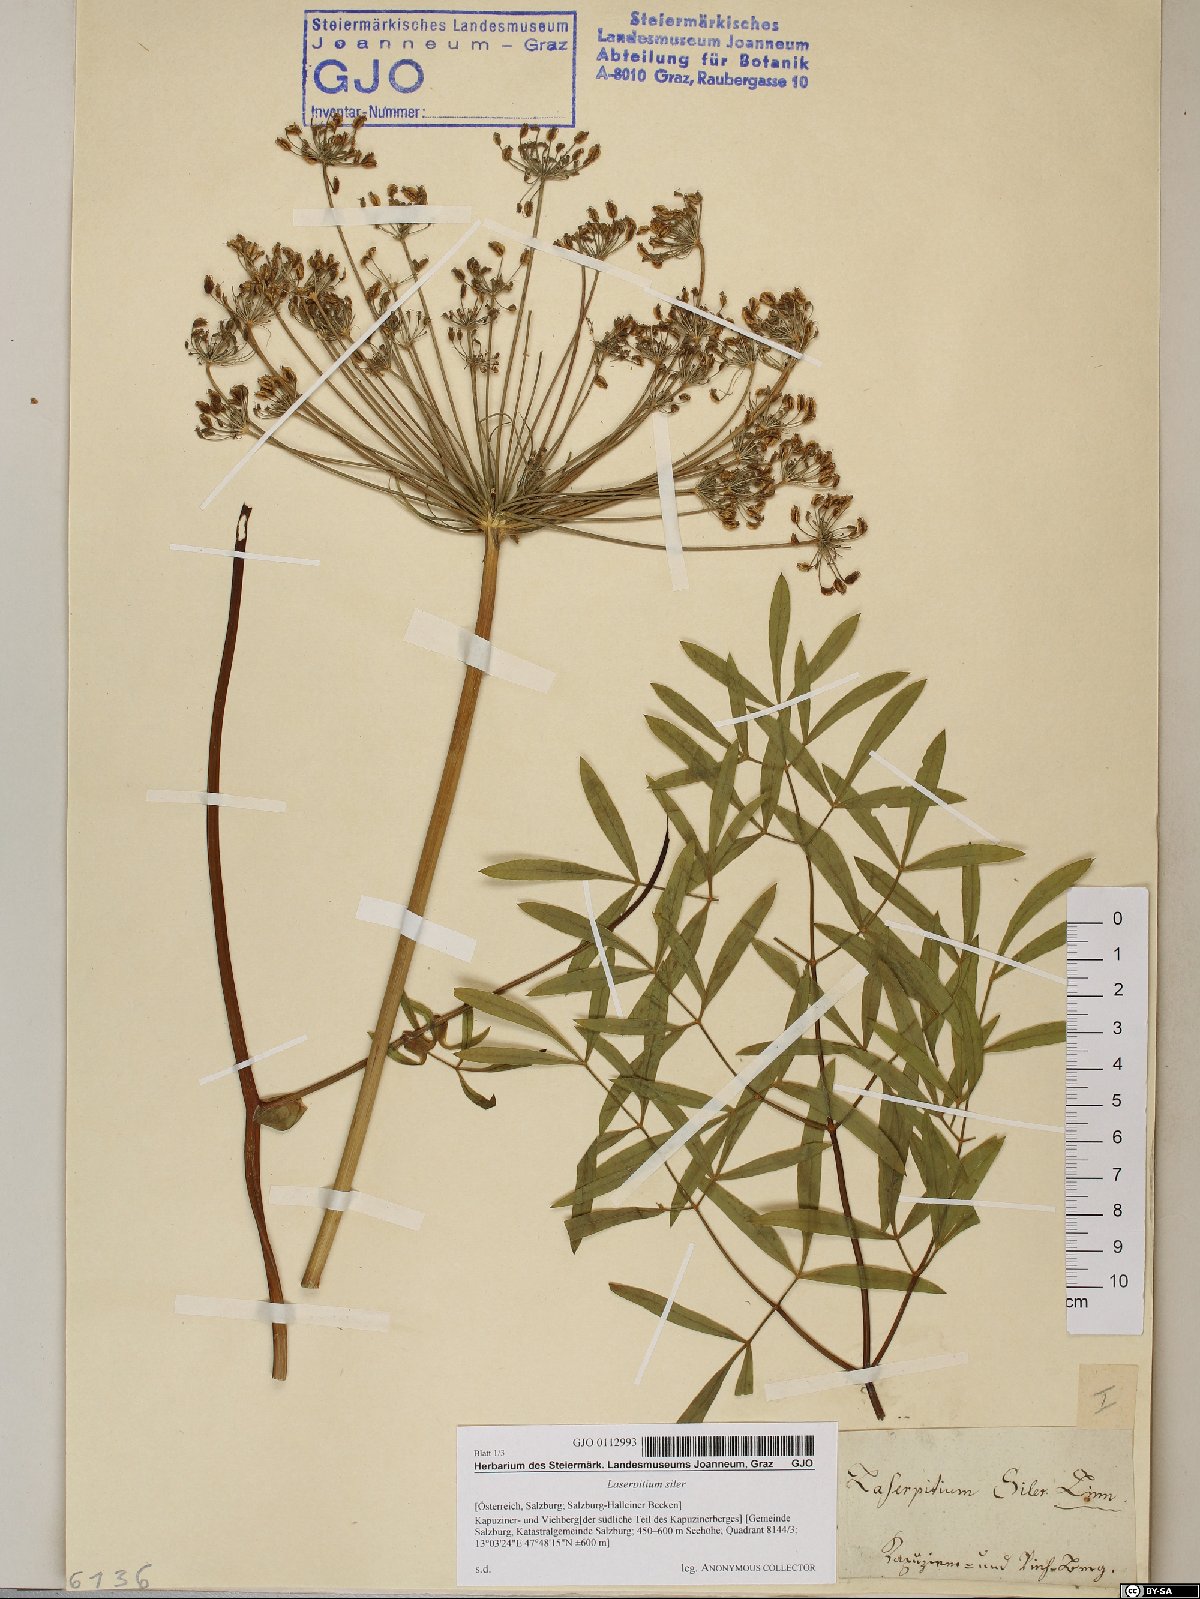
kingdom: Plantae
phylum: Tracheophyta
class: Magnoliopsida
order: Apiales
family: Apiaceae
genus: Siler
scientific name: Siler montanum
